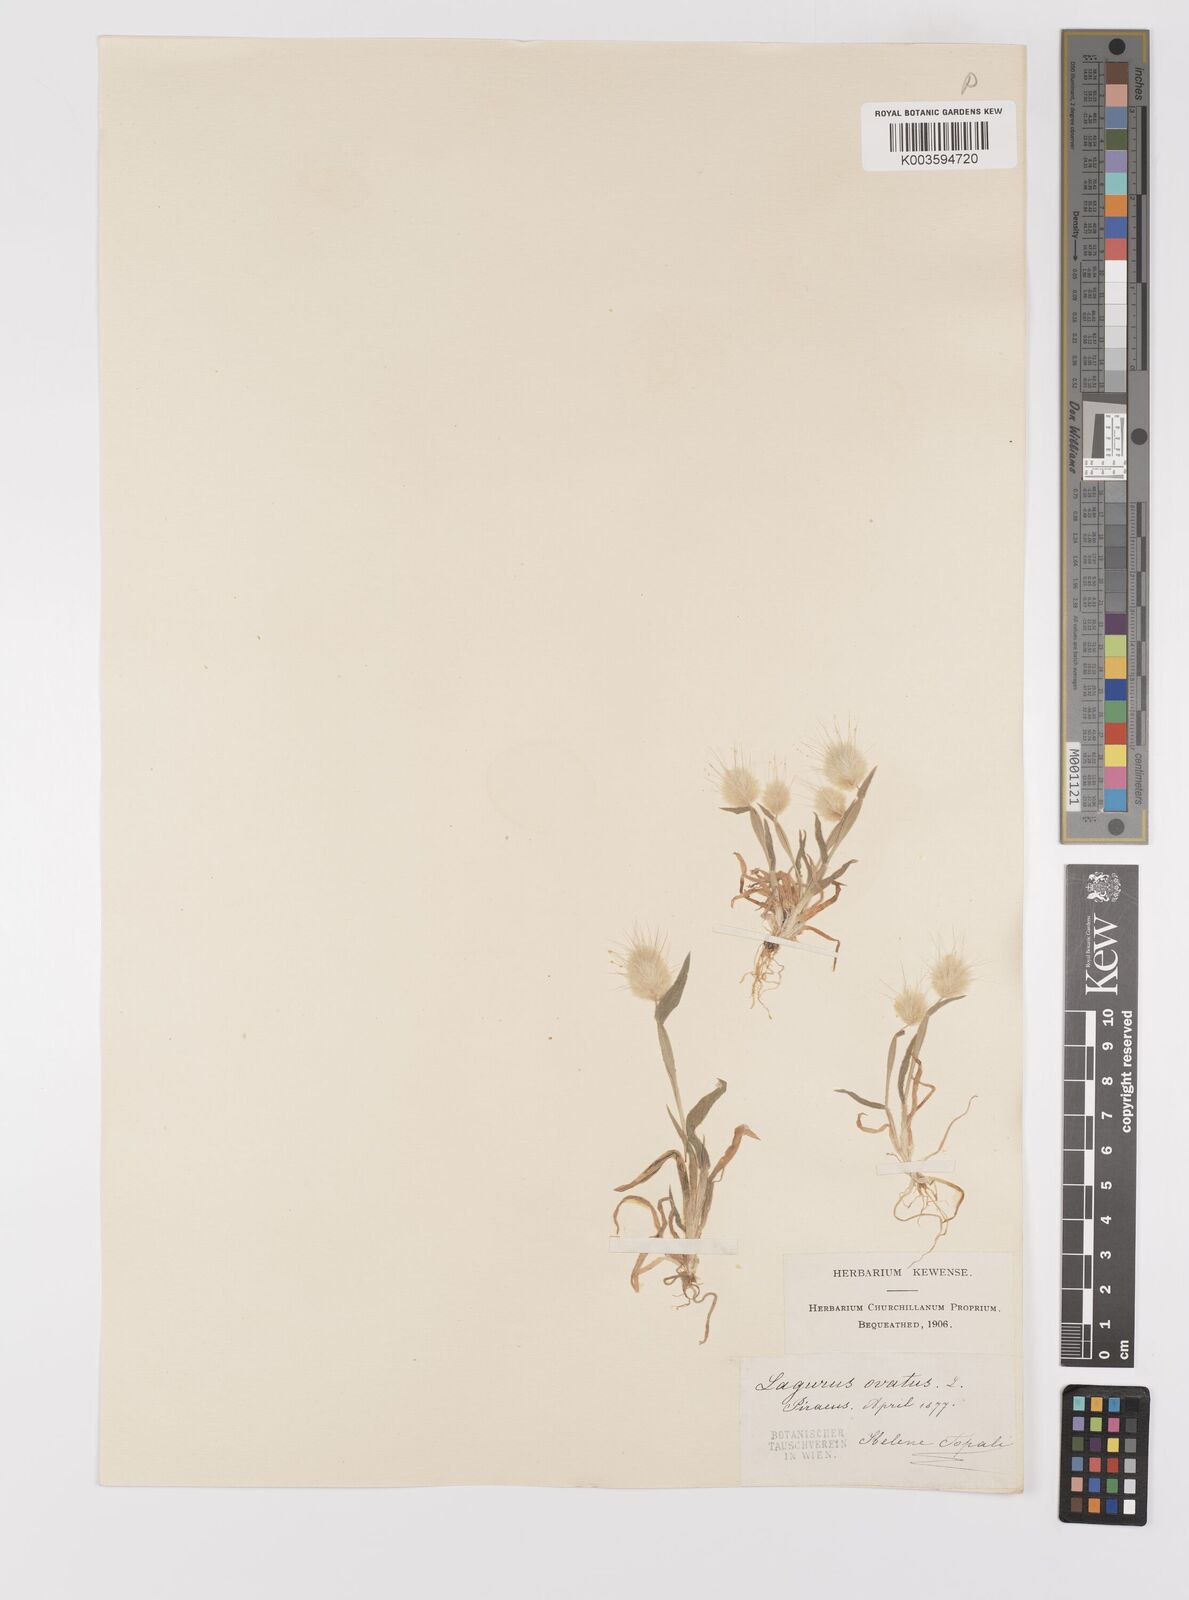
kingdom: Plantae
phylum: Tracheophyta
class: Liliopsida
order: Poales
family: Poaceae
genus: Lagurus
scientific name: Lagurus ovatus
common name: Hare's-tail
